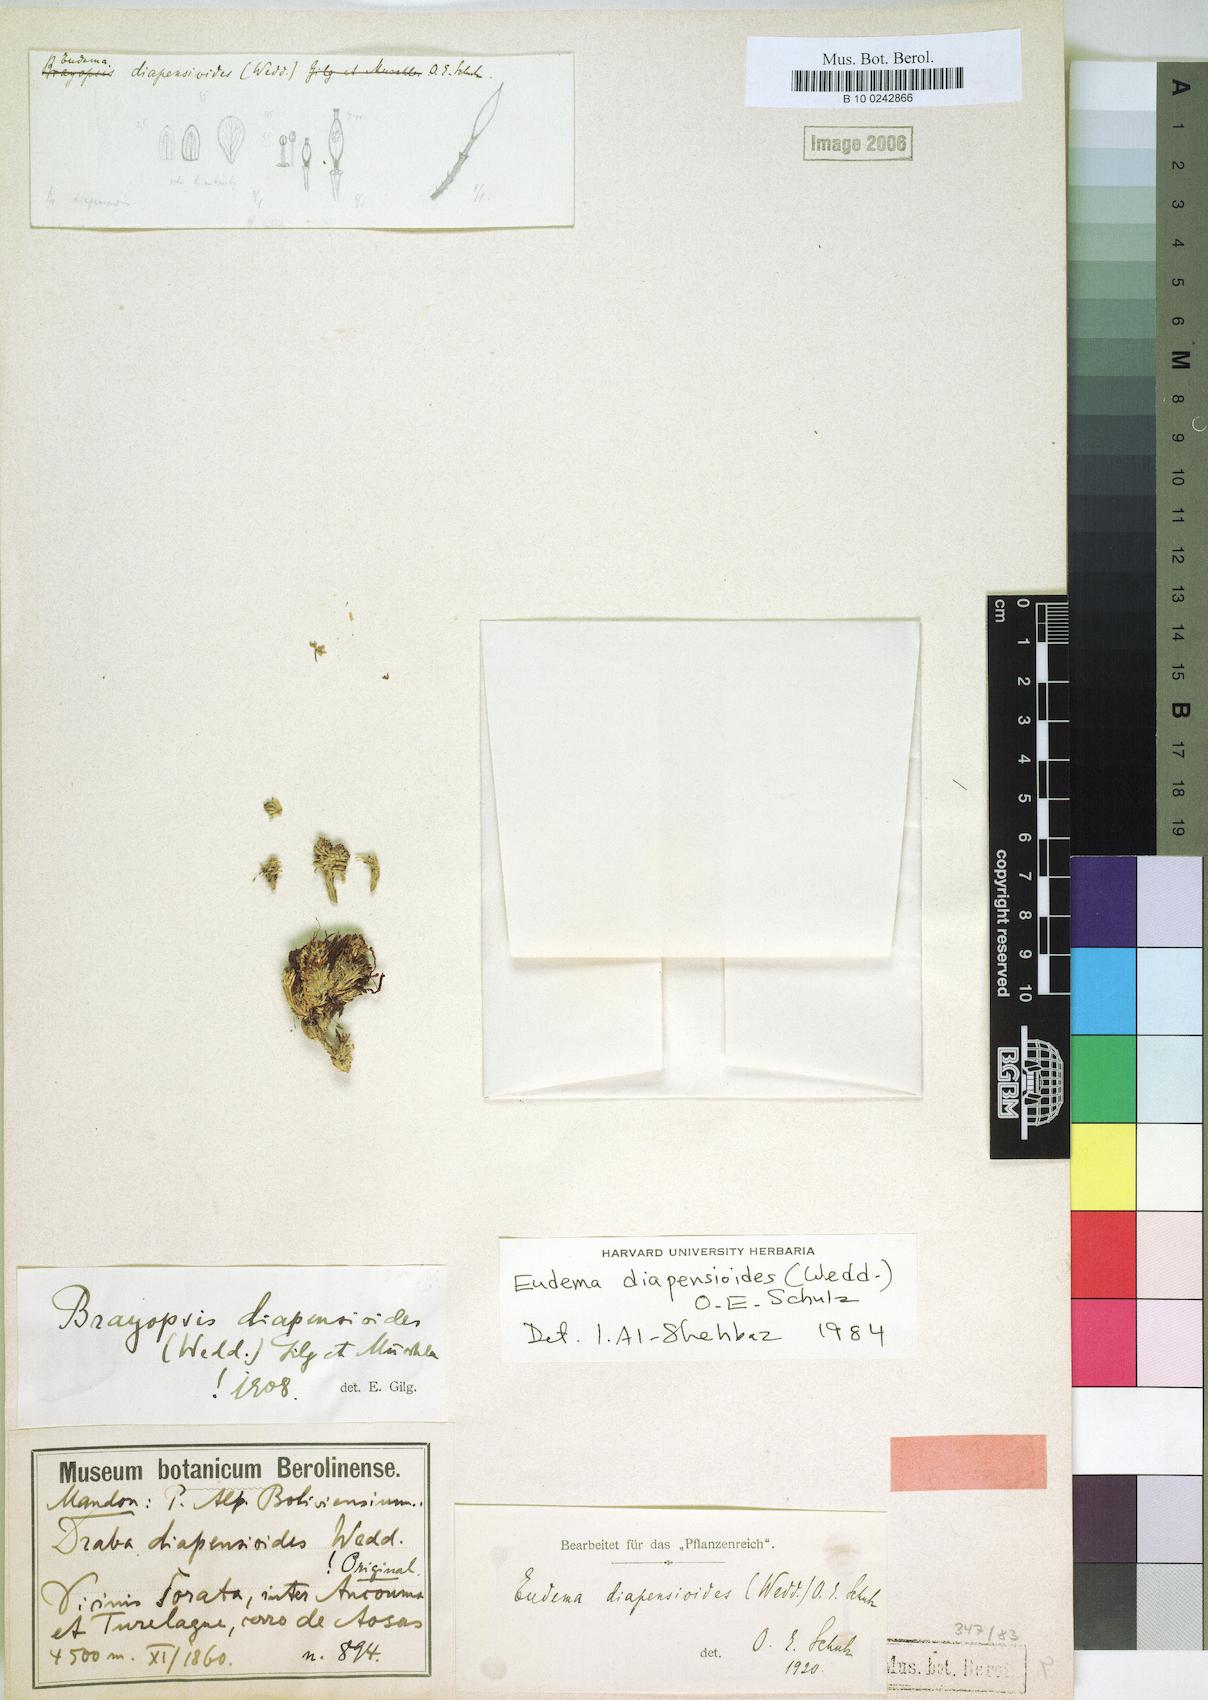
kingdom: Plantae
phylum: Tracheophyta
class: Magnoliopsida
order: Brassicales
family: Brassicaceae
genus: Brayopsis
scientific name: Brayopsis diapensioides
